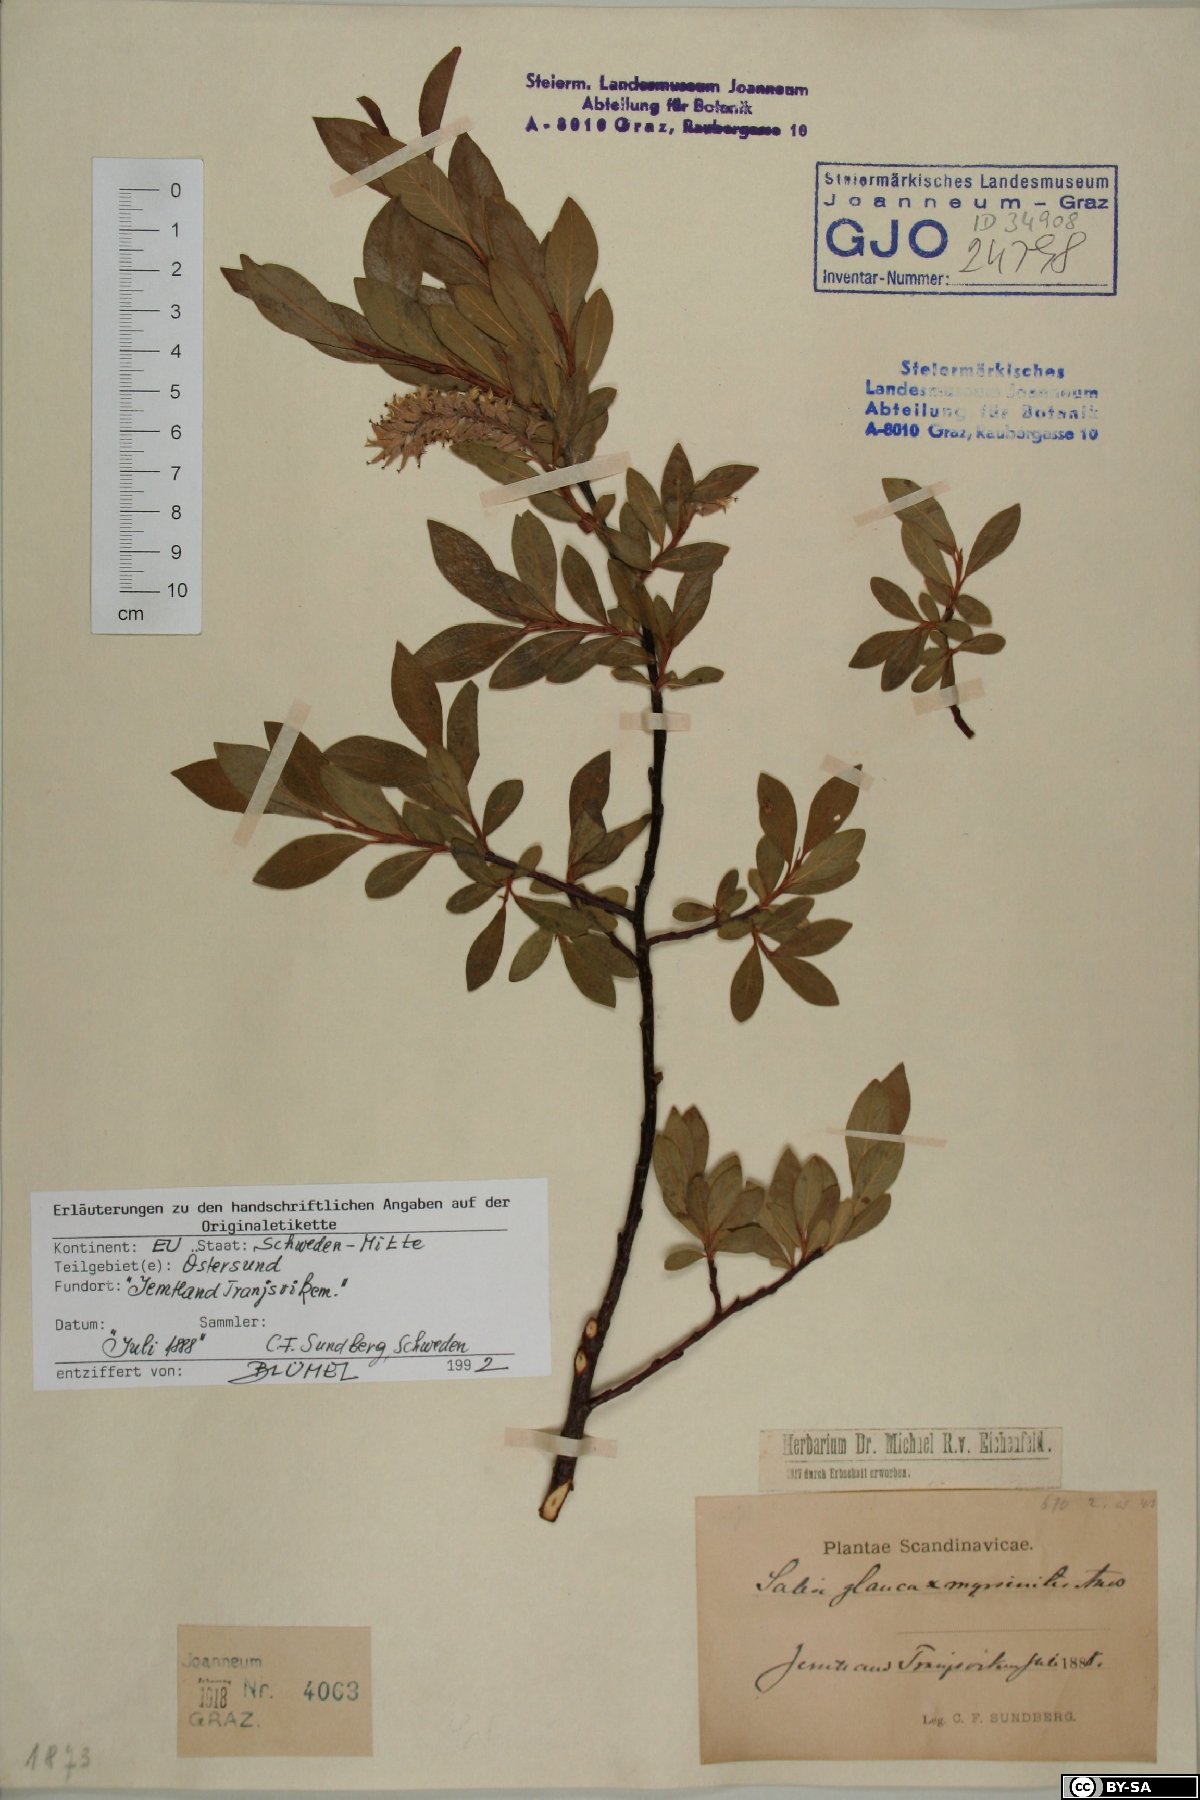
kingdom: Plantae
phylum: Tracheophyta
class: Magnoliopsida
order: Malpighiales
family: Salicaceae
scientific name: Salicaceae
